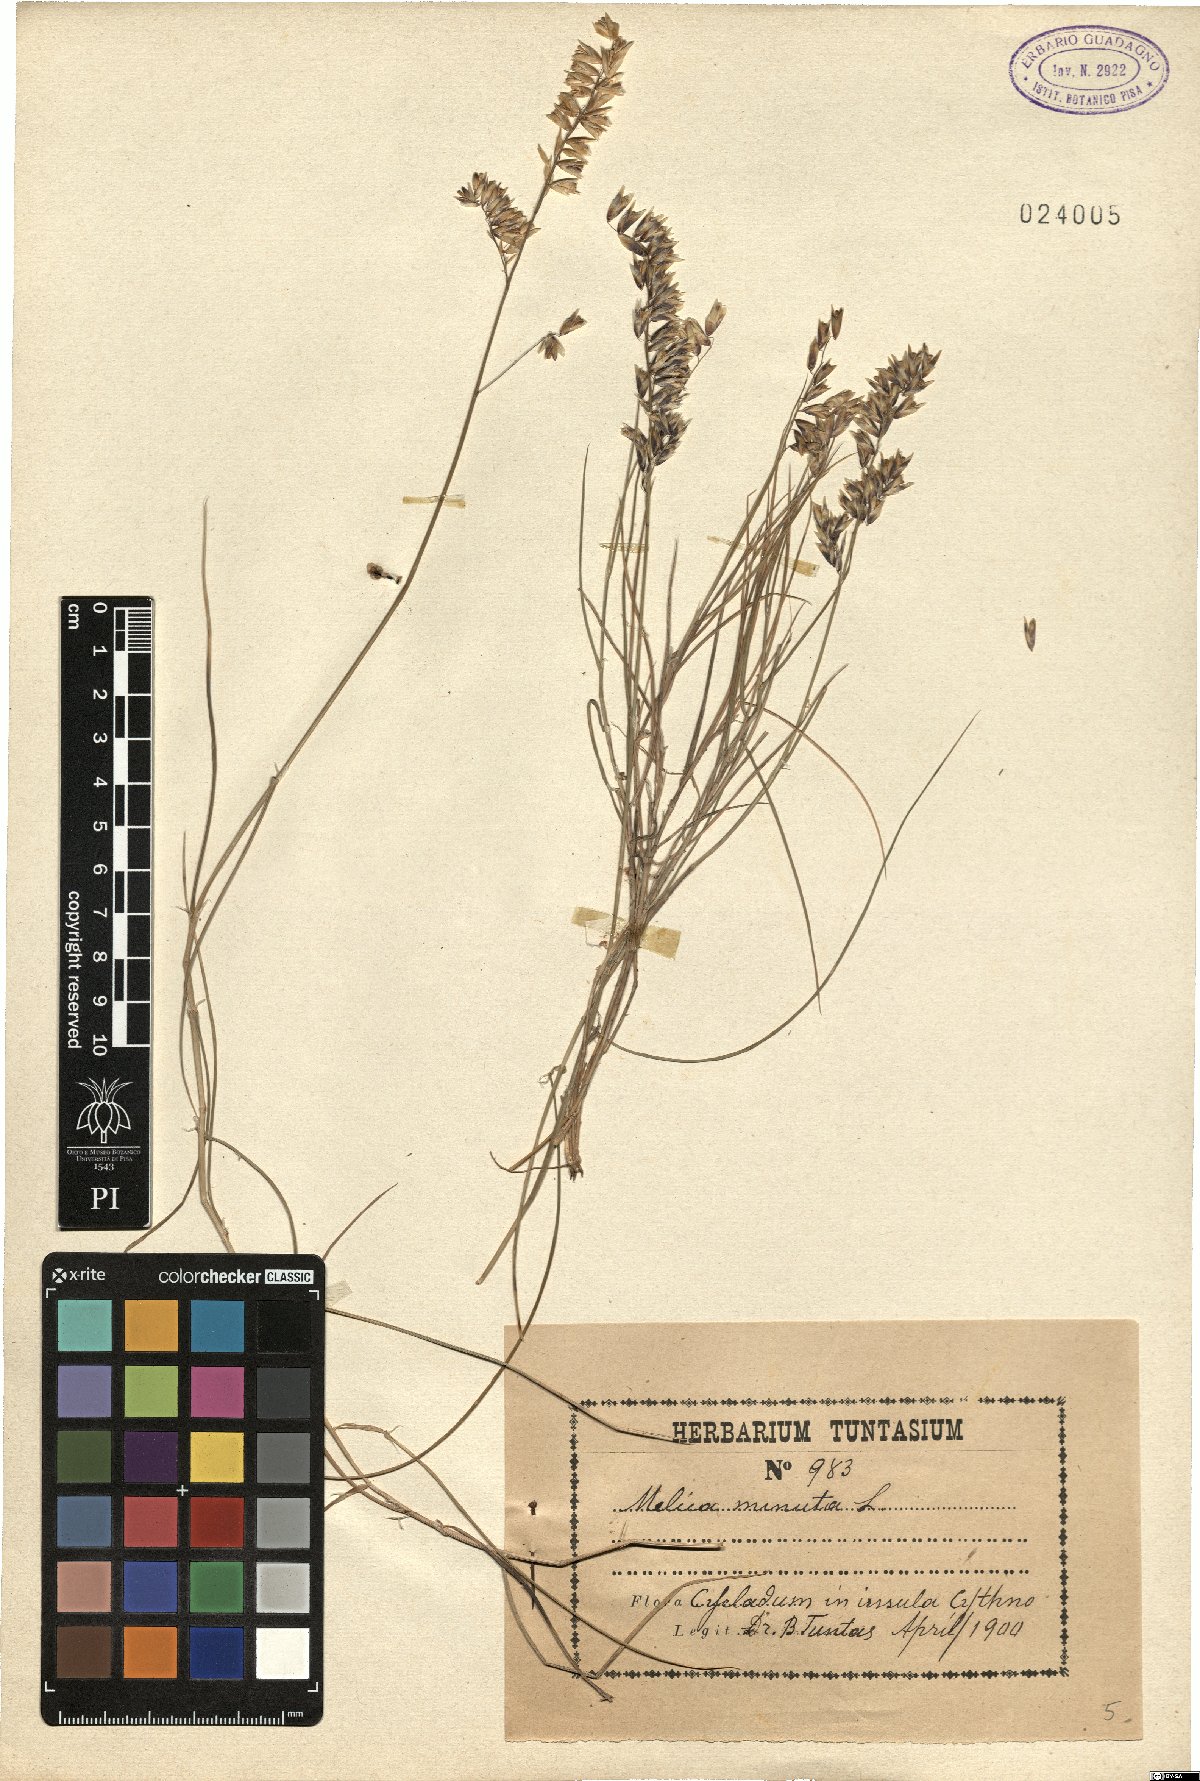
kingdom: Plantae
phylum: Tracheophyta
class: Liliopsida
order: Poales
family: Poaceae
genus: Melica
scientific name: Melica minuta
